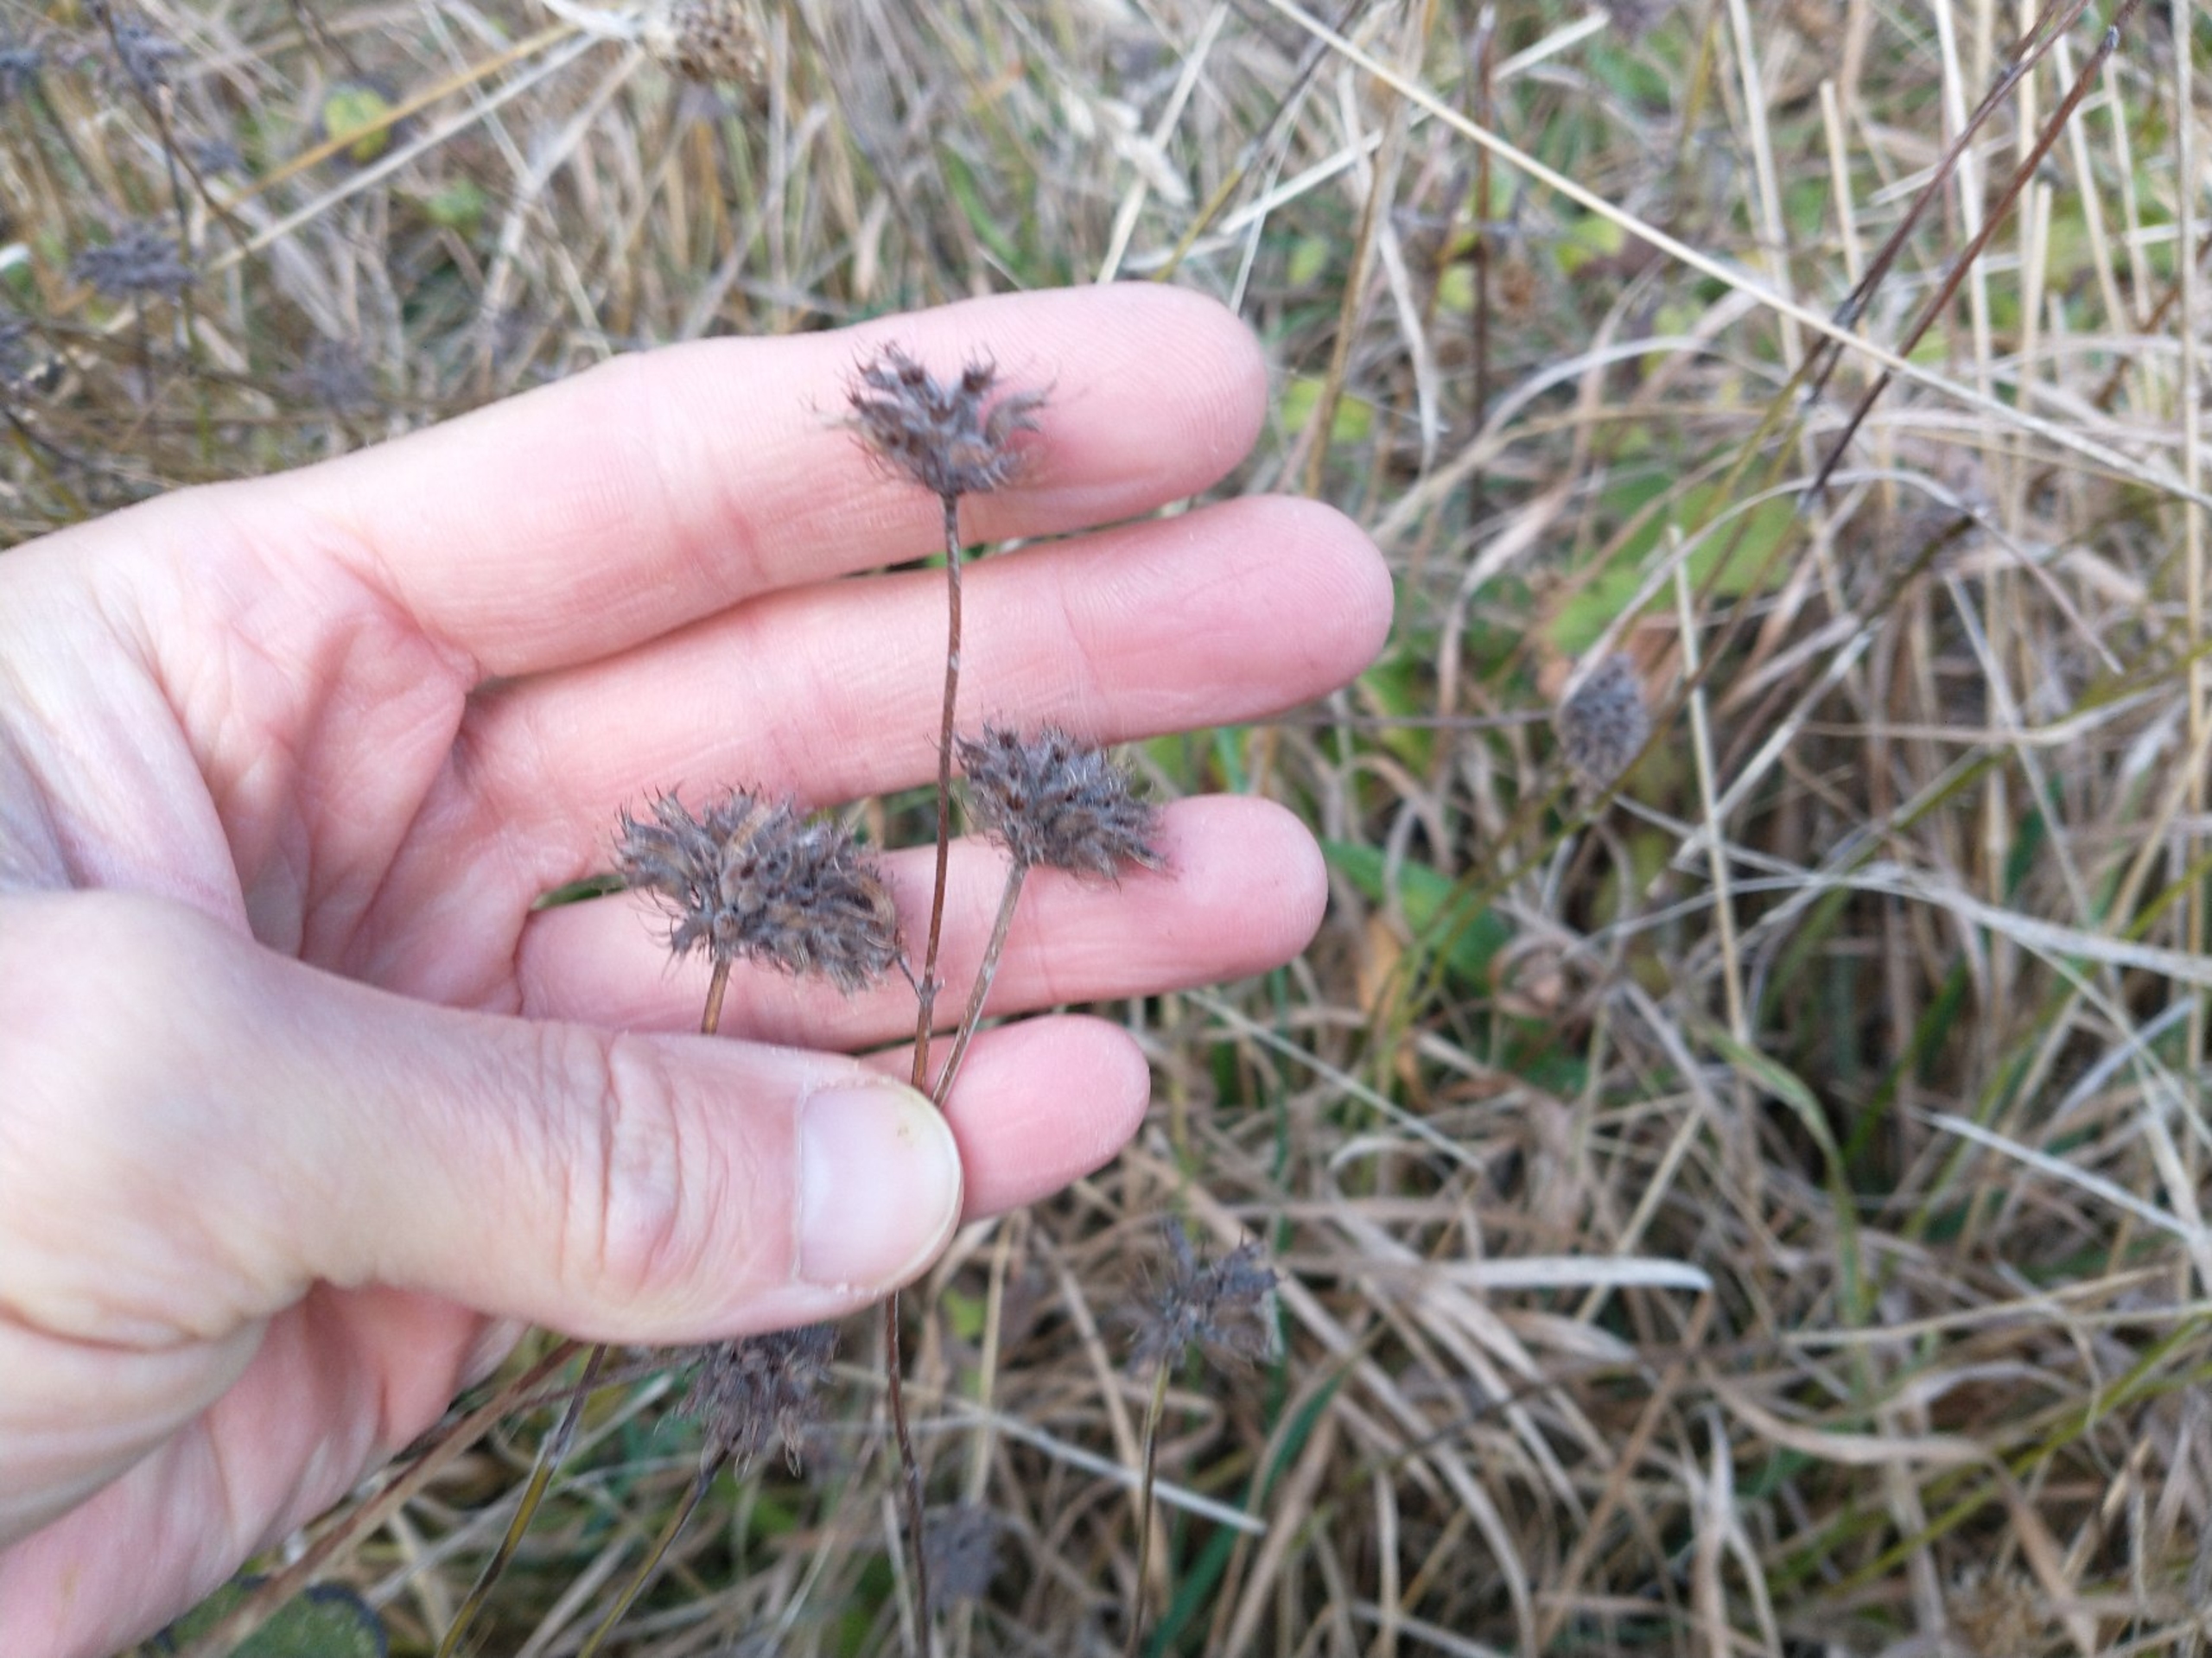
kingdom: Plantae
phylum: Tracheophyta
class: Magnoliopsida
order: Lamiales
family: Lamiaceae
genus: Clinopodium
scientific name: Clinopodium vulgare
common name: Kransbørste
